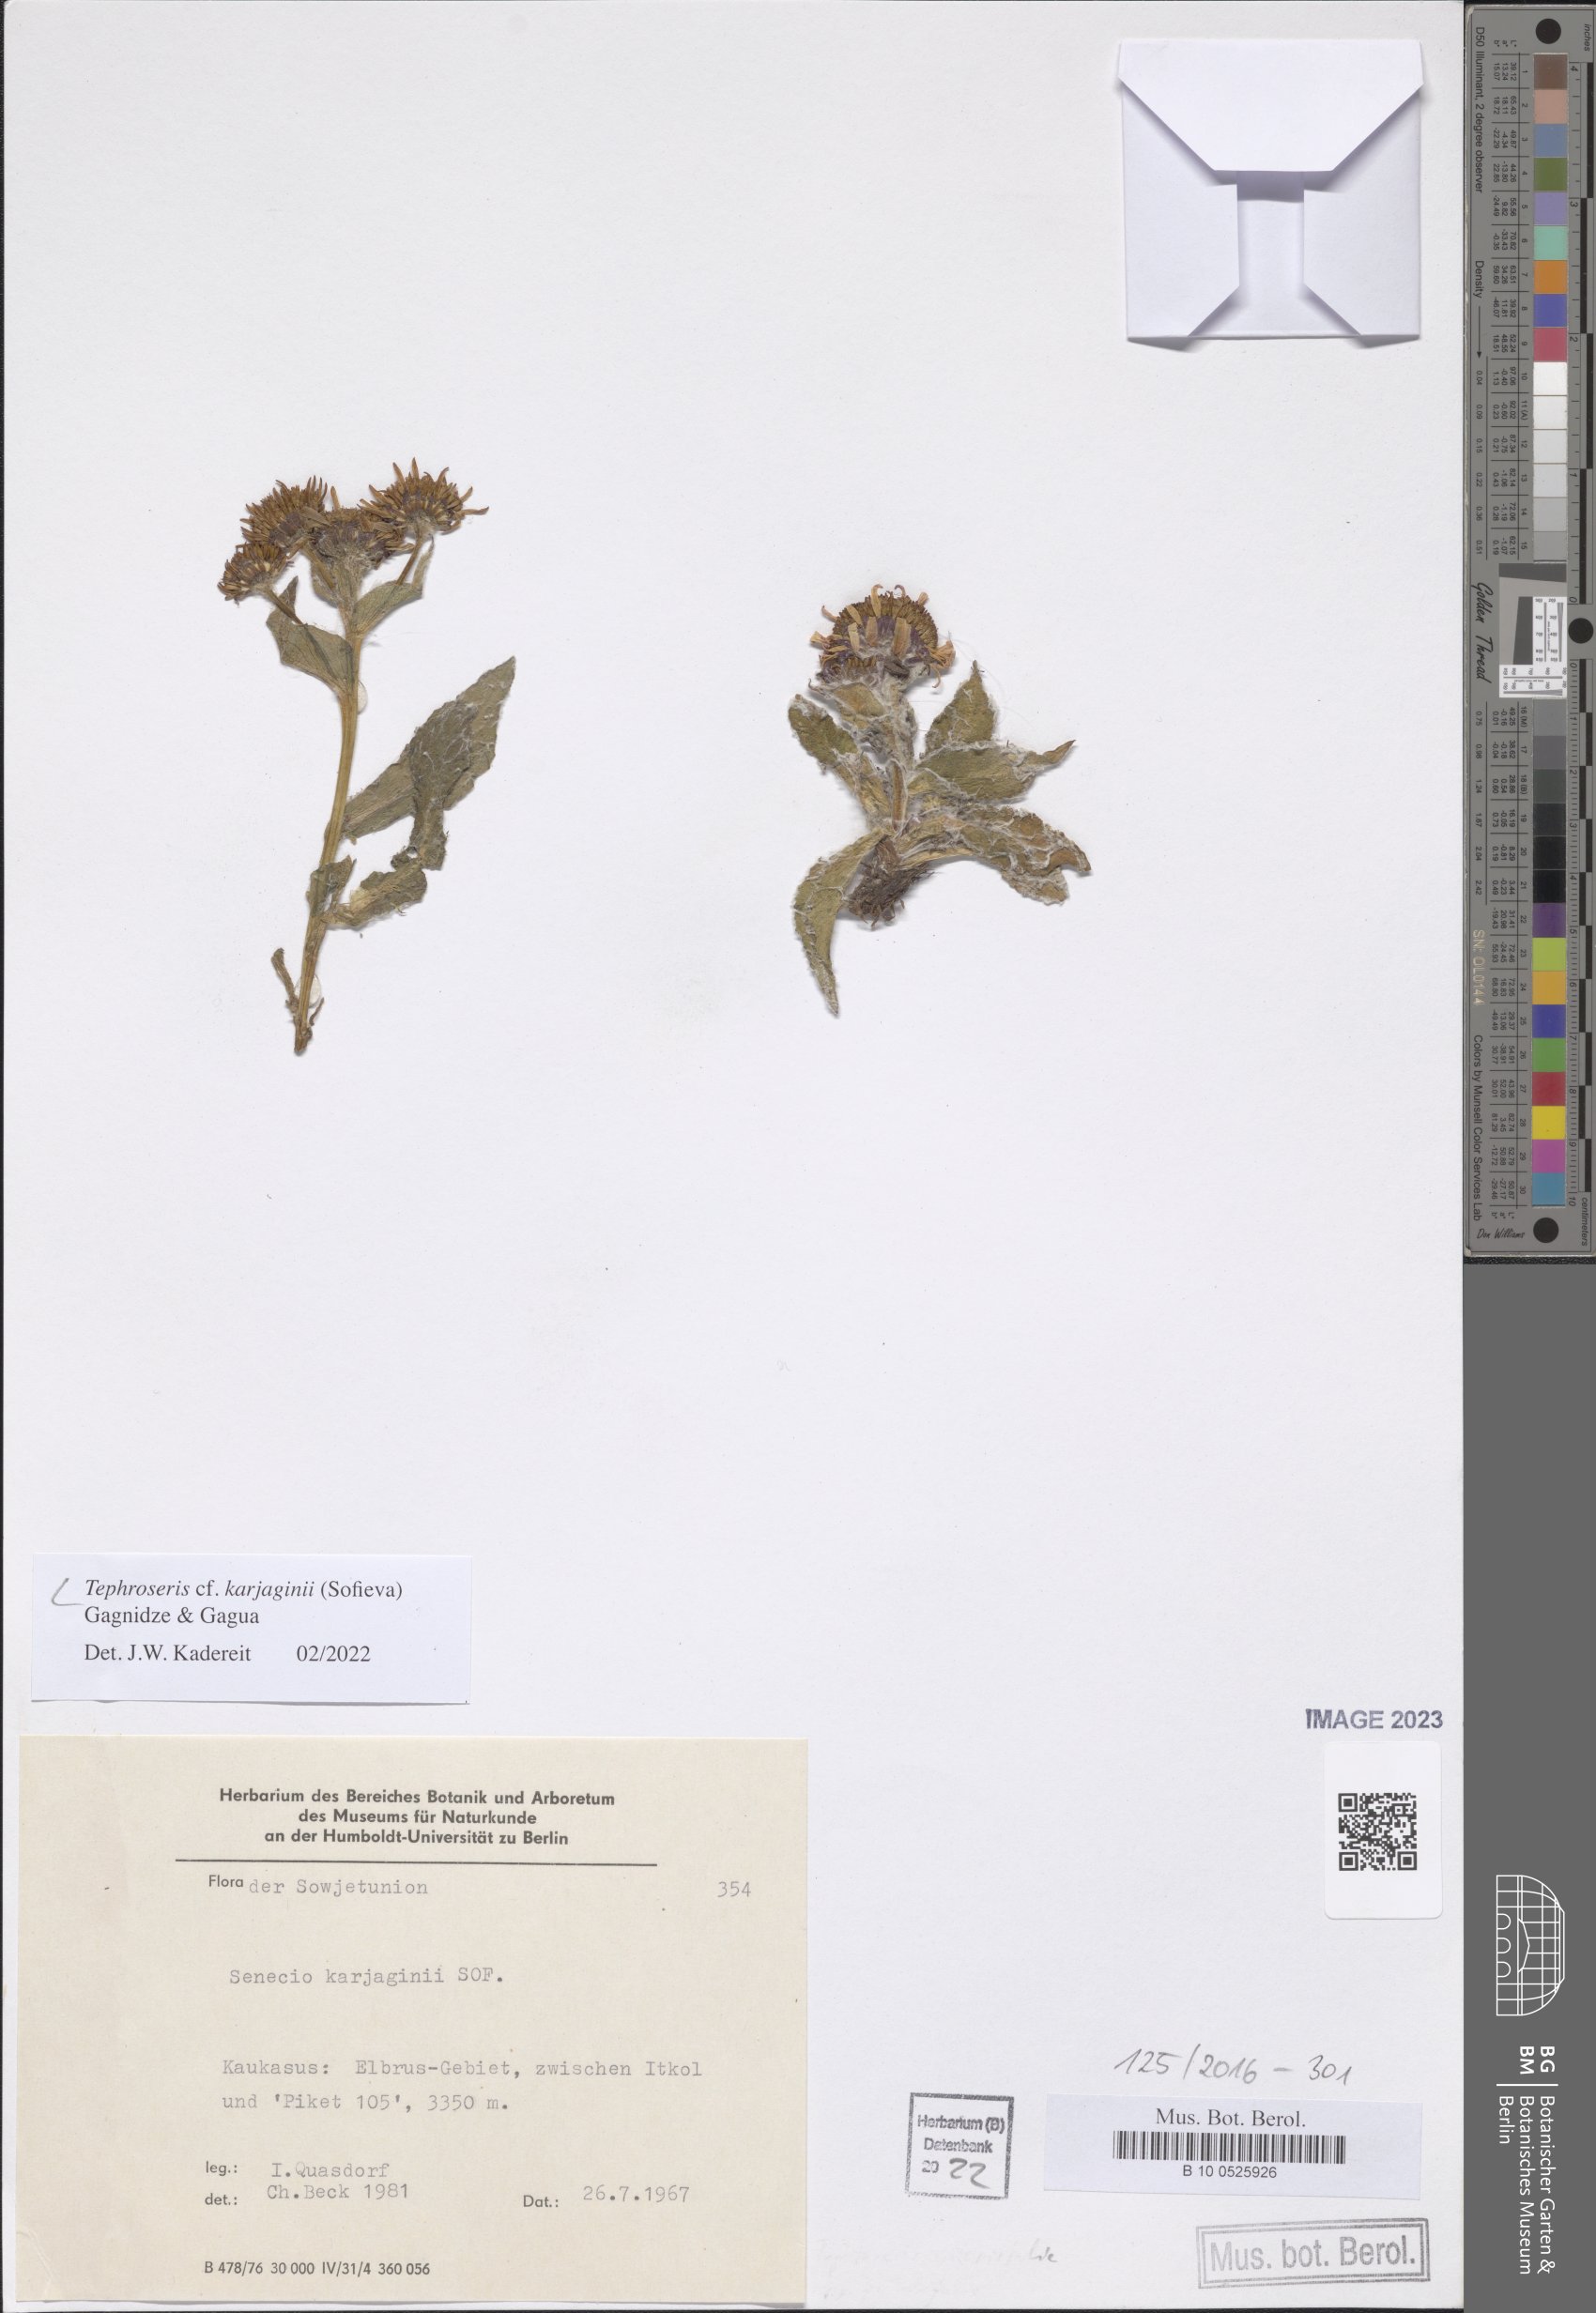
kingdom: Plantae
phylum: Tracheophyta
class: Magnoliopsida
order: Asterales
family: Asteraceae
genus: Tephroseris
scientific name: Tephroseris integrifolia
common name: Field fleawort
